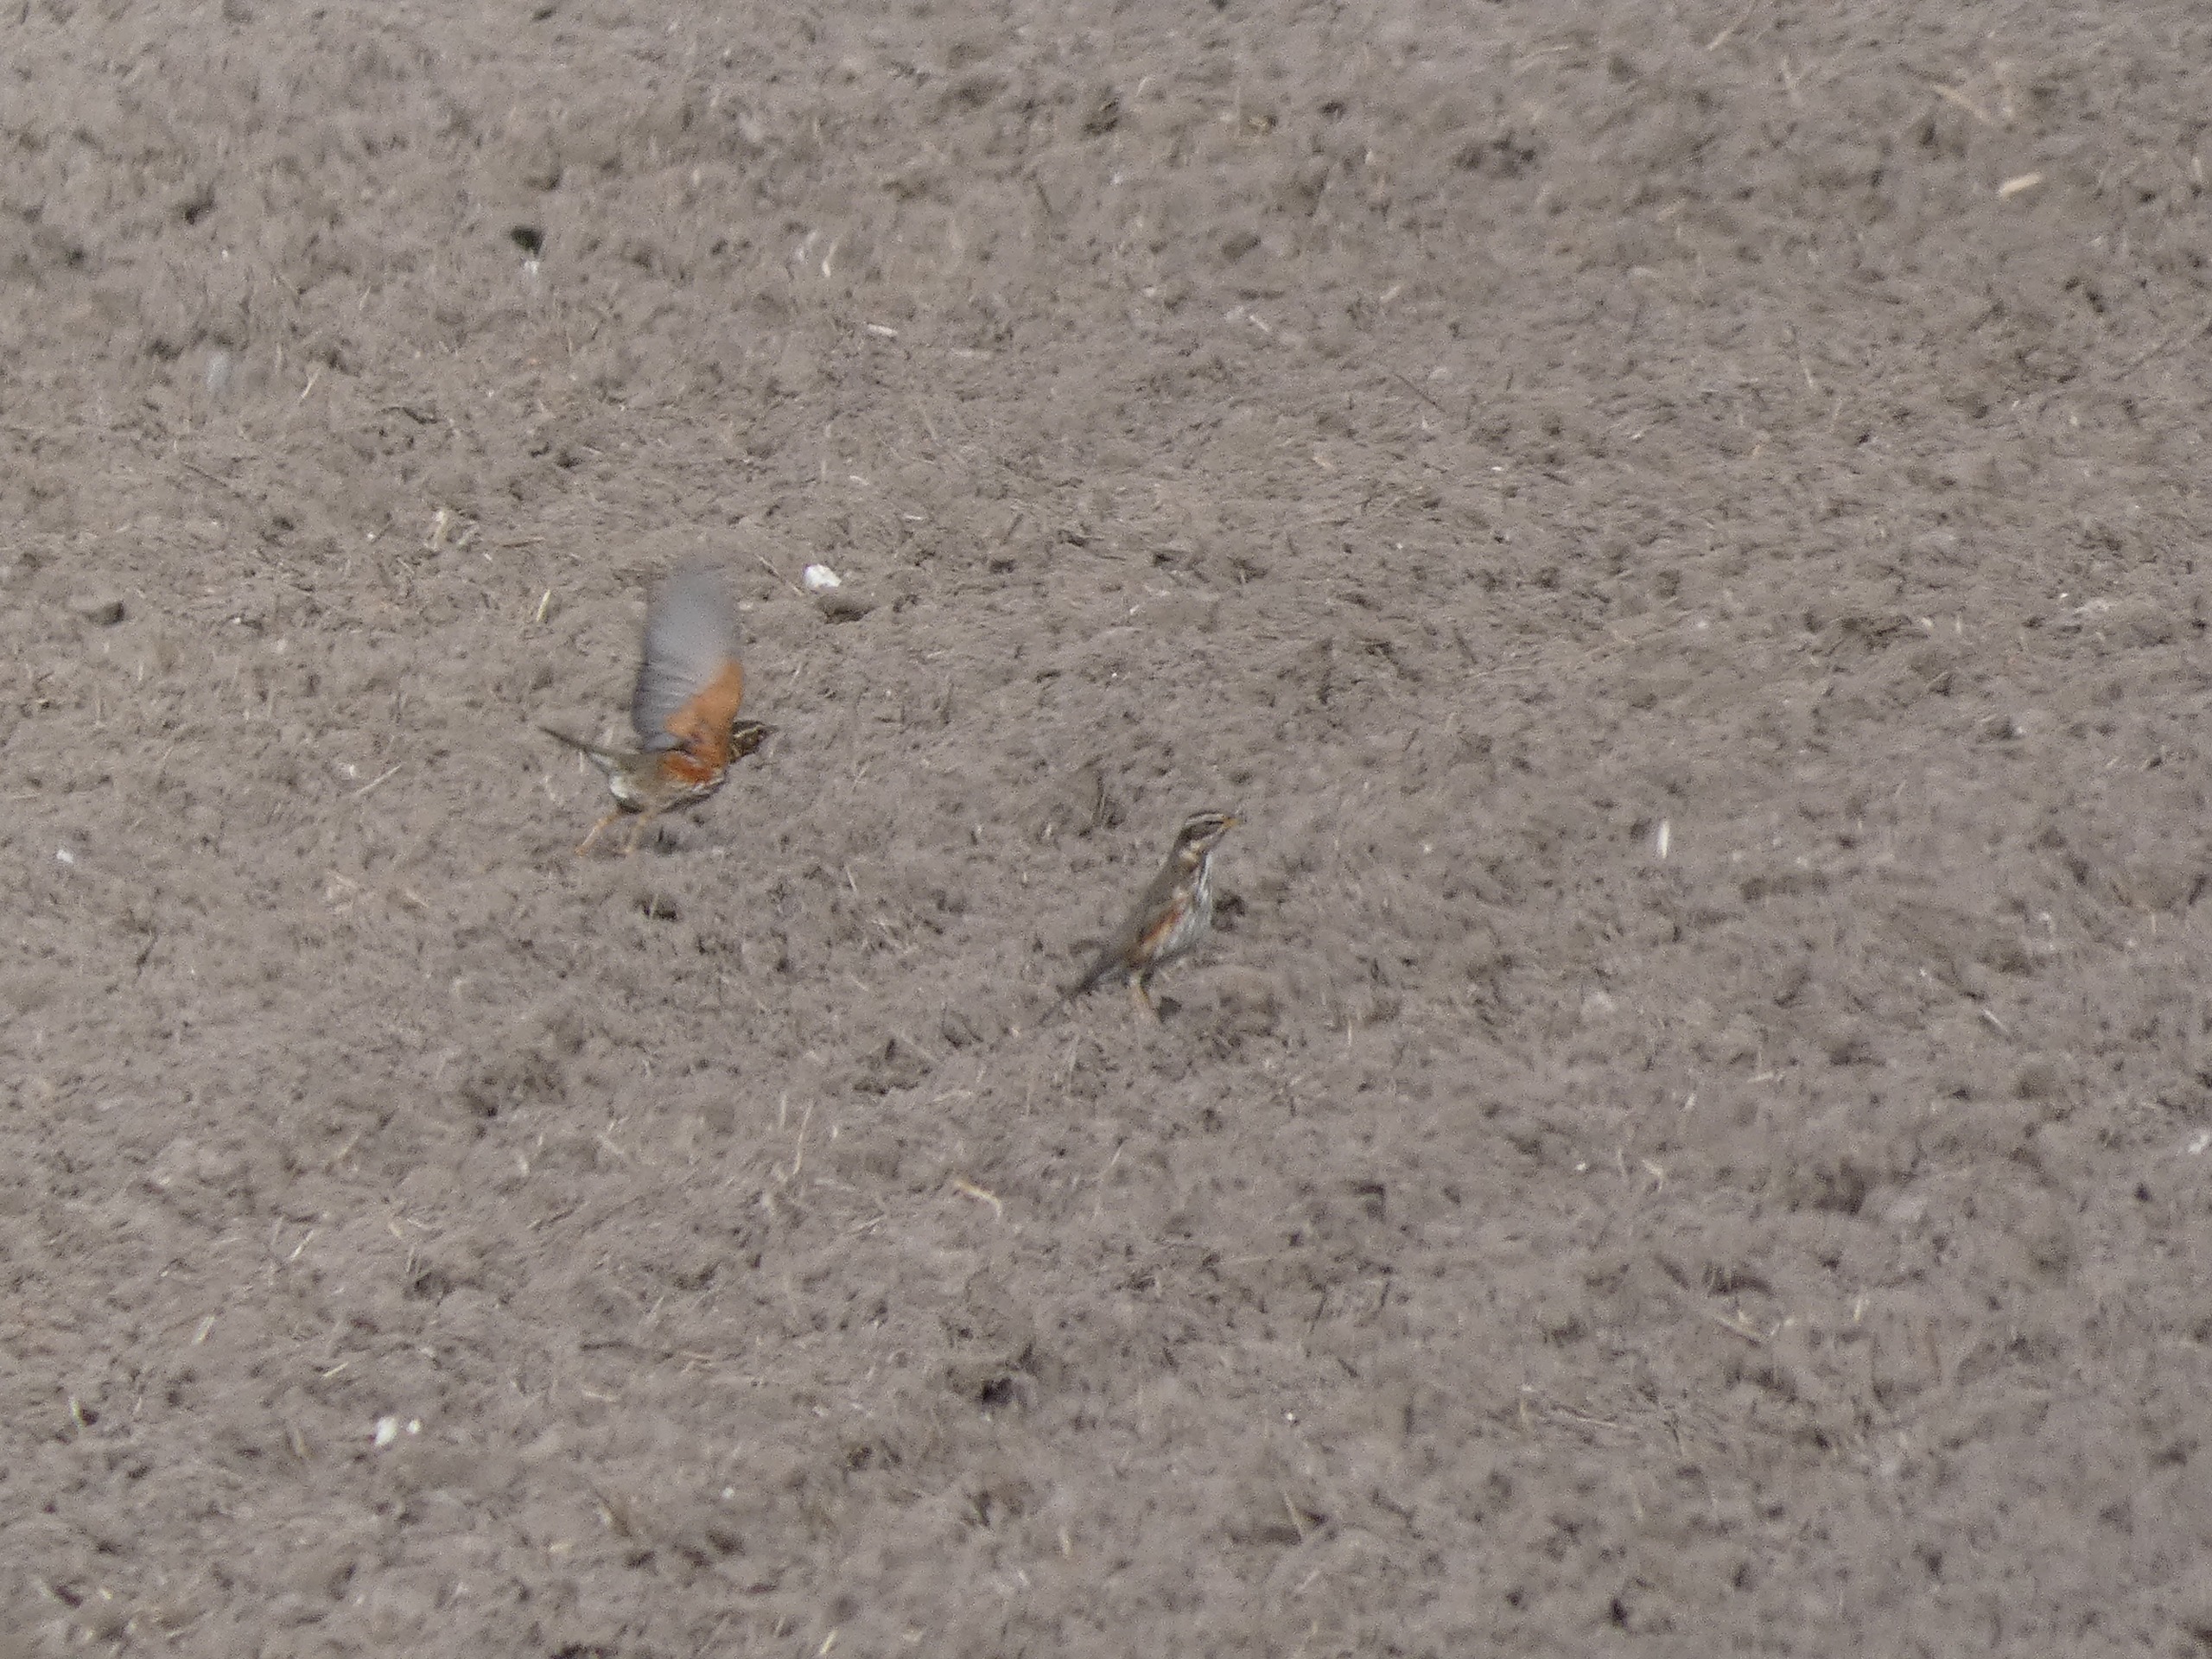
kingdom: Animalia
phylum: Chordata
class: Aves
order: Passeriformes
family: Turdidae
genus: Turdus
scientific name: Turdus iliacus
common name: Vindrossel
